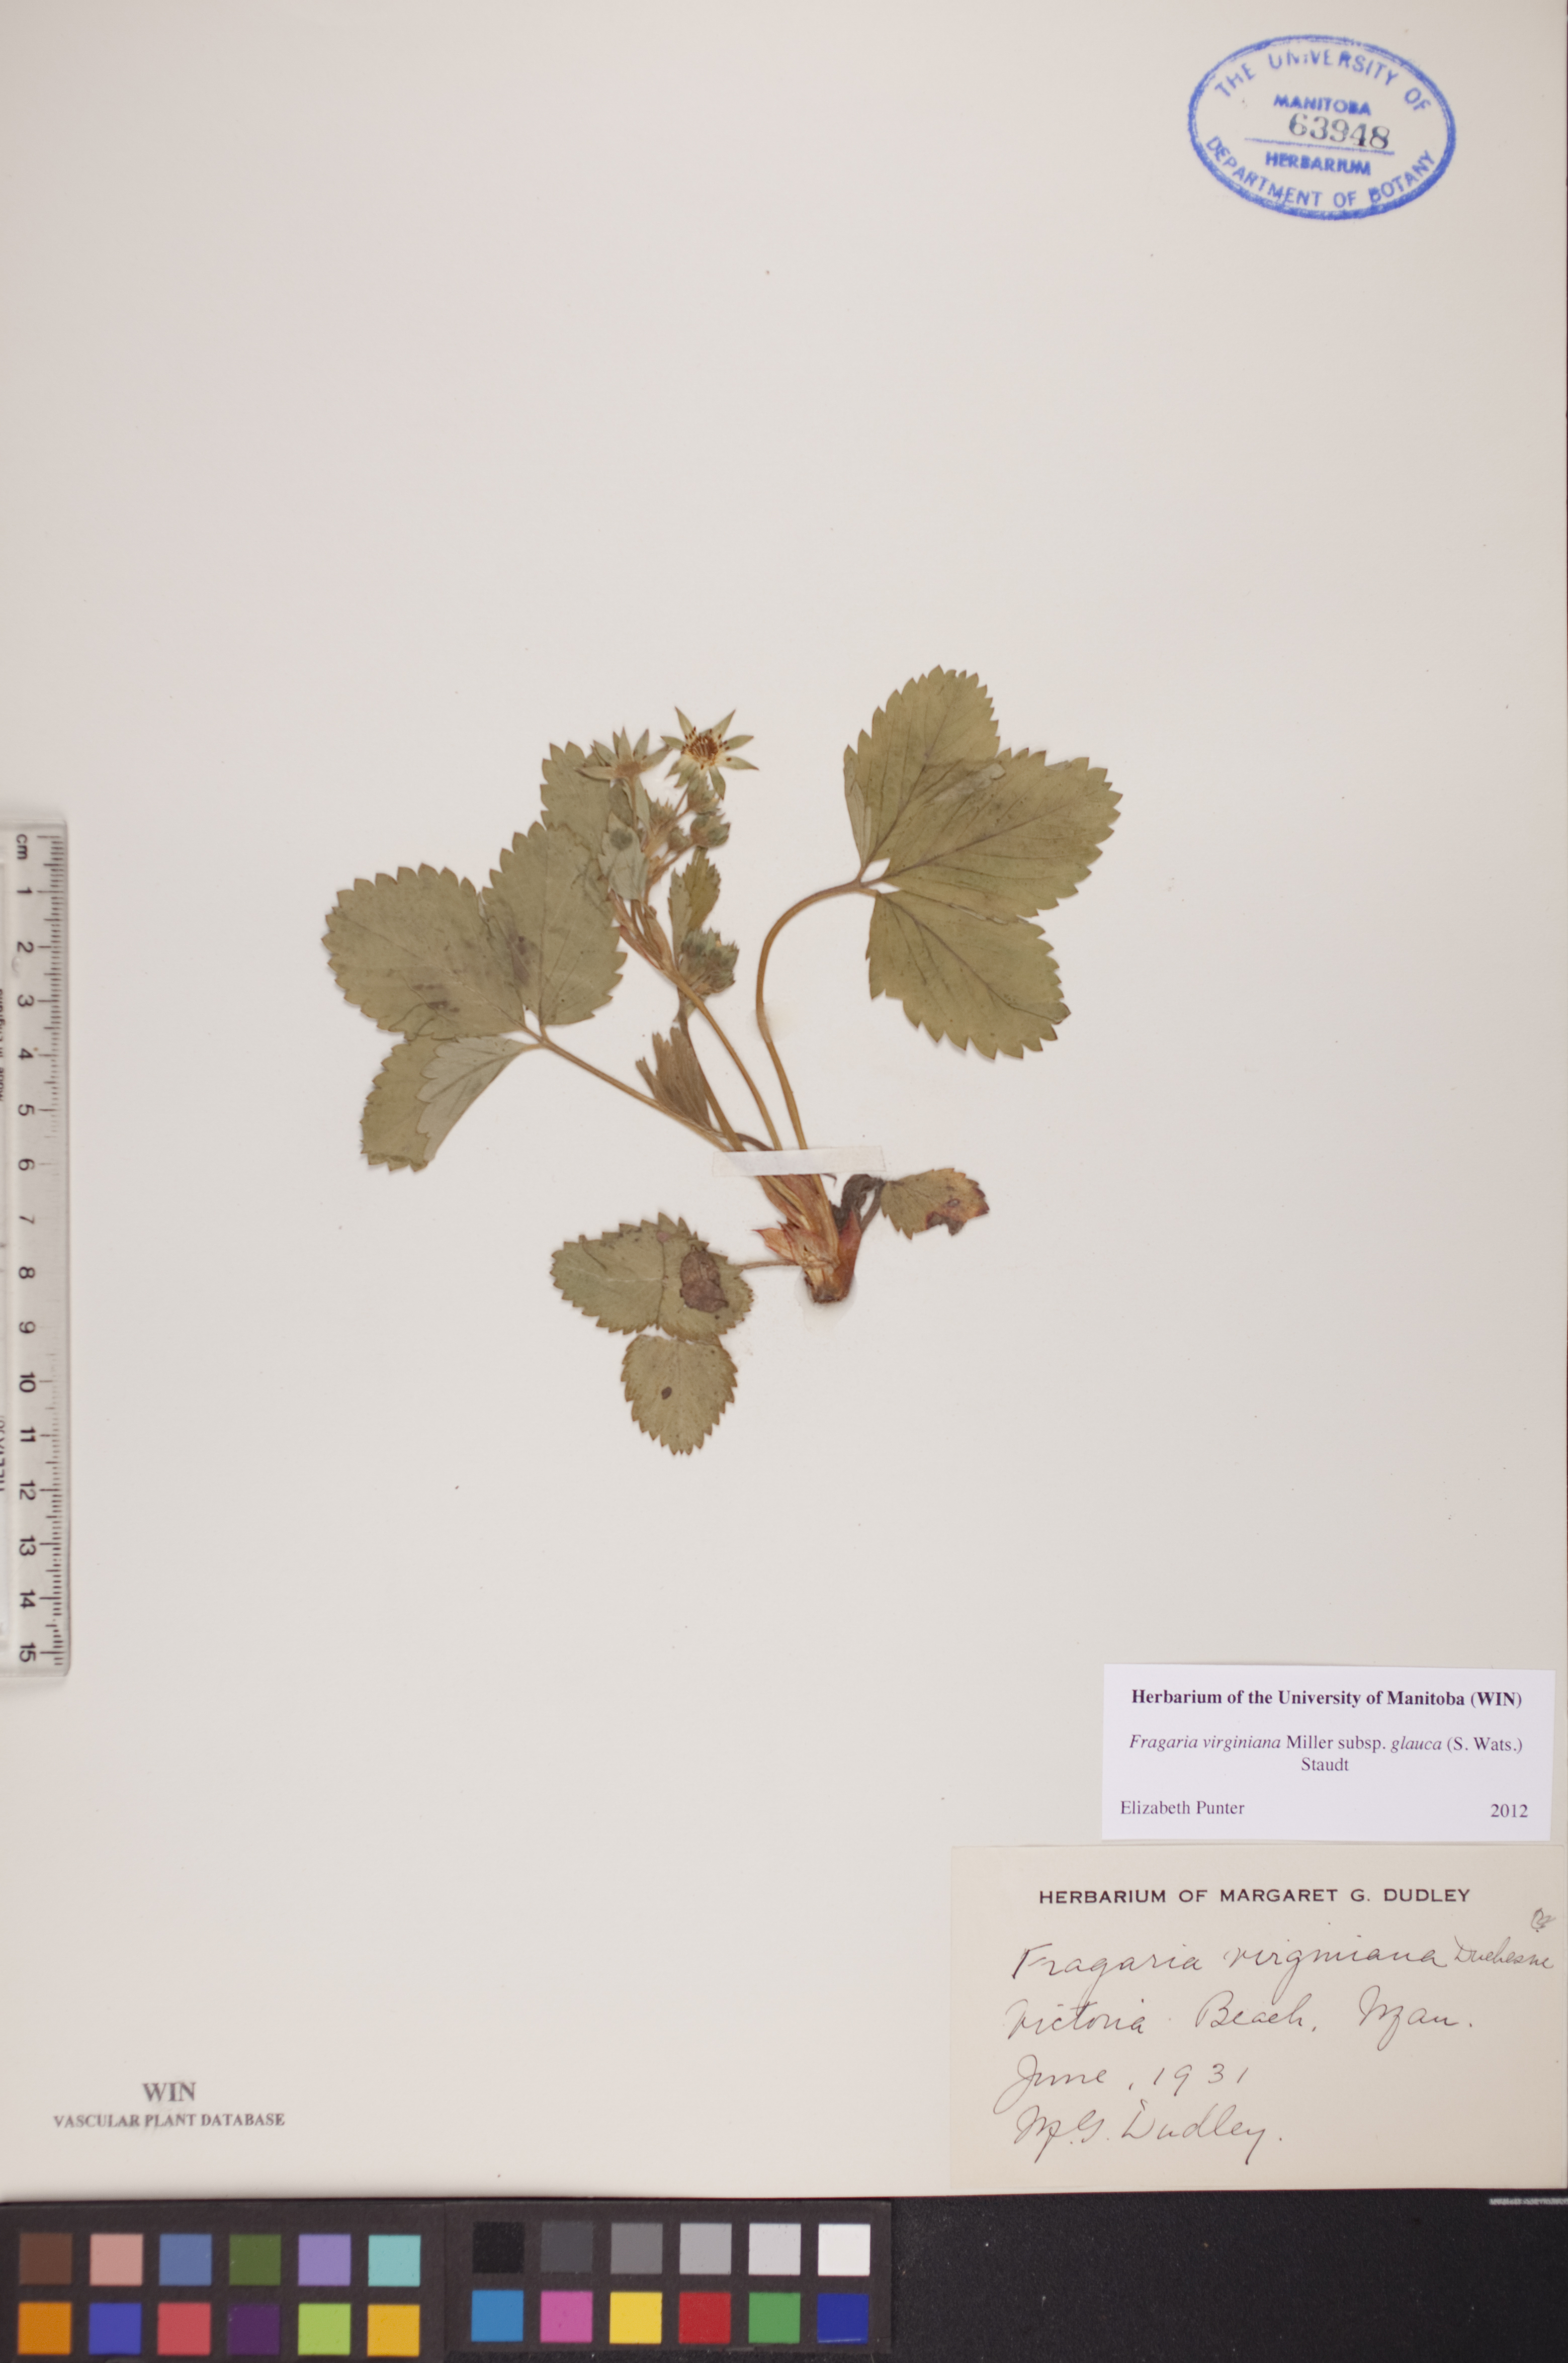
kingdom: Plantae
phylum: Tracheophyta
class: Magnoliopsida
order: Rosales
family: Rosaceae
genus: Fragaria
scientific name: Fragaria virginiana
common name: Thickleaved wild strawberry
